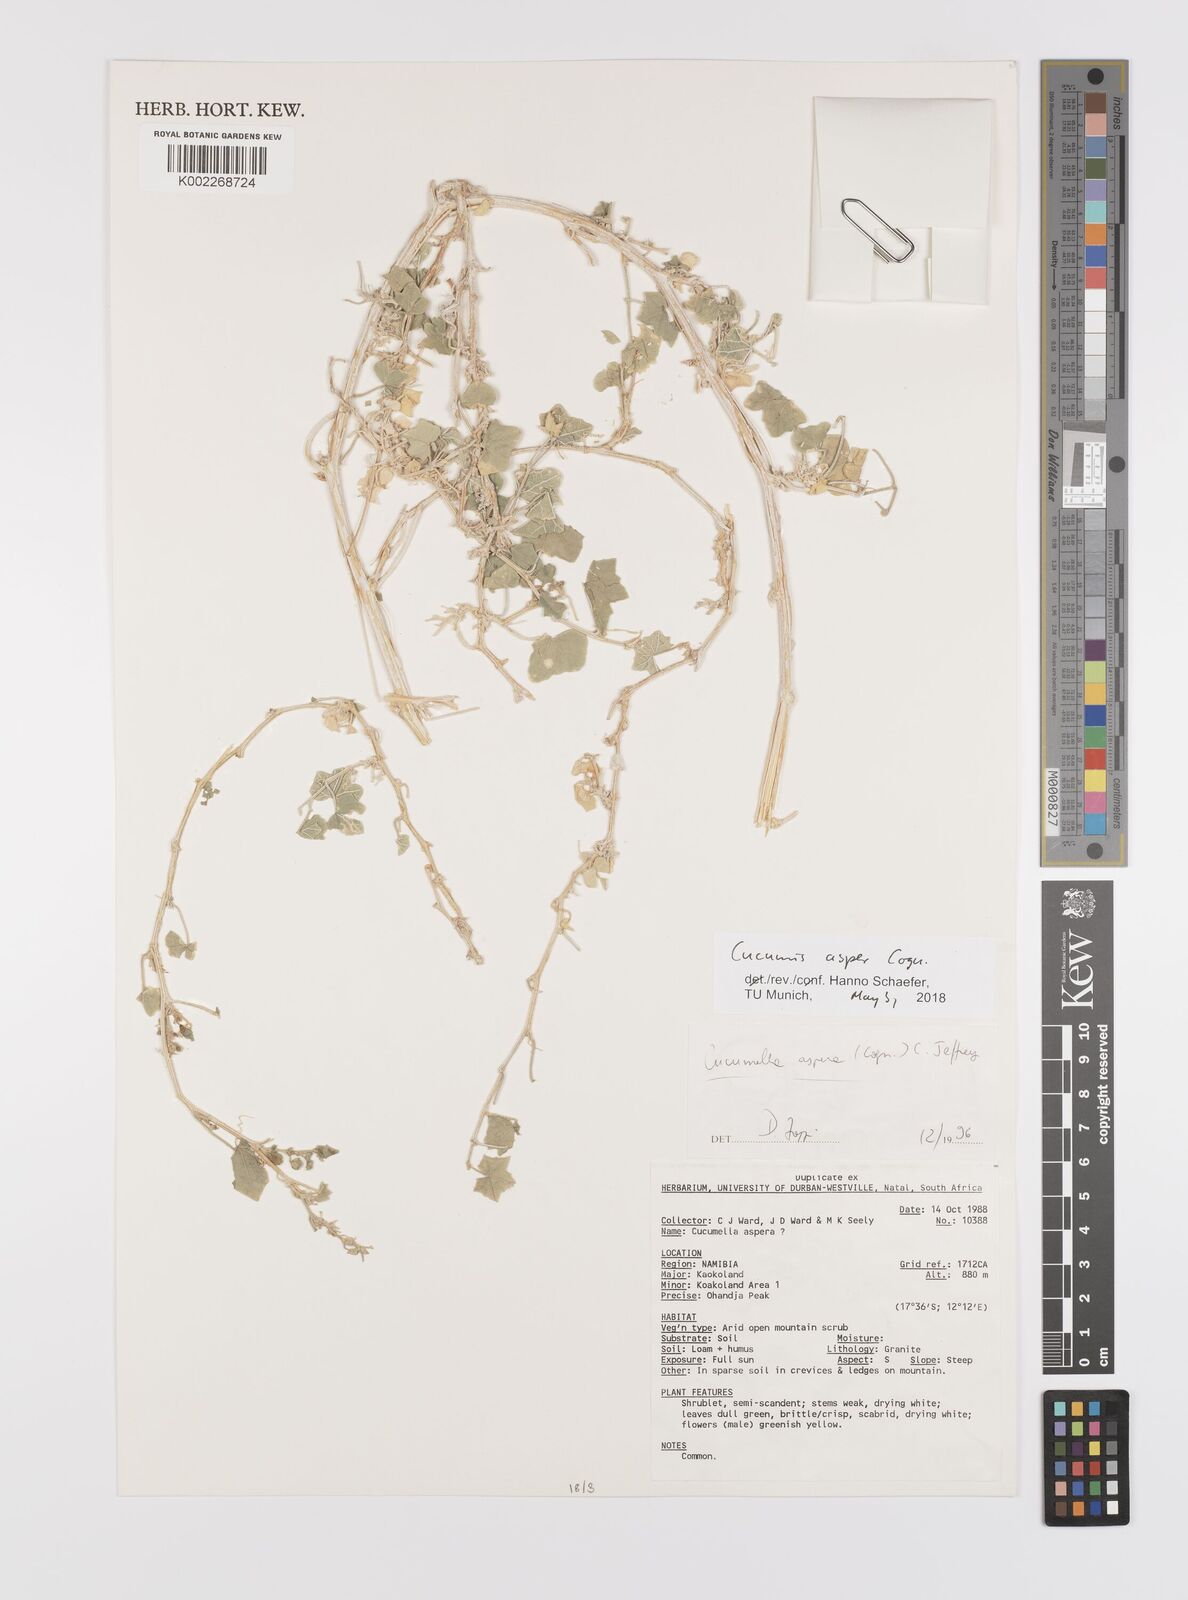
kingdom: Plantae
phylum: Tracheophyta
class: Magnoliopsida
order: Cucurbitales
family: Cucurbitaceae
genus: Cucumis
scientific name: Cucumis asper
